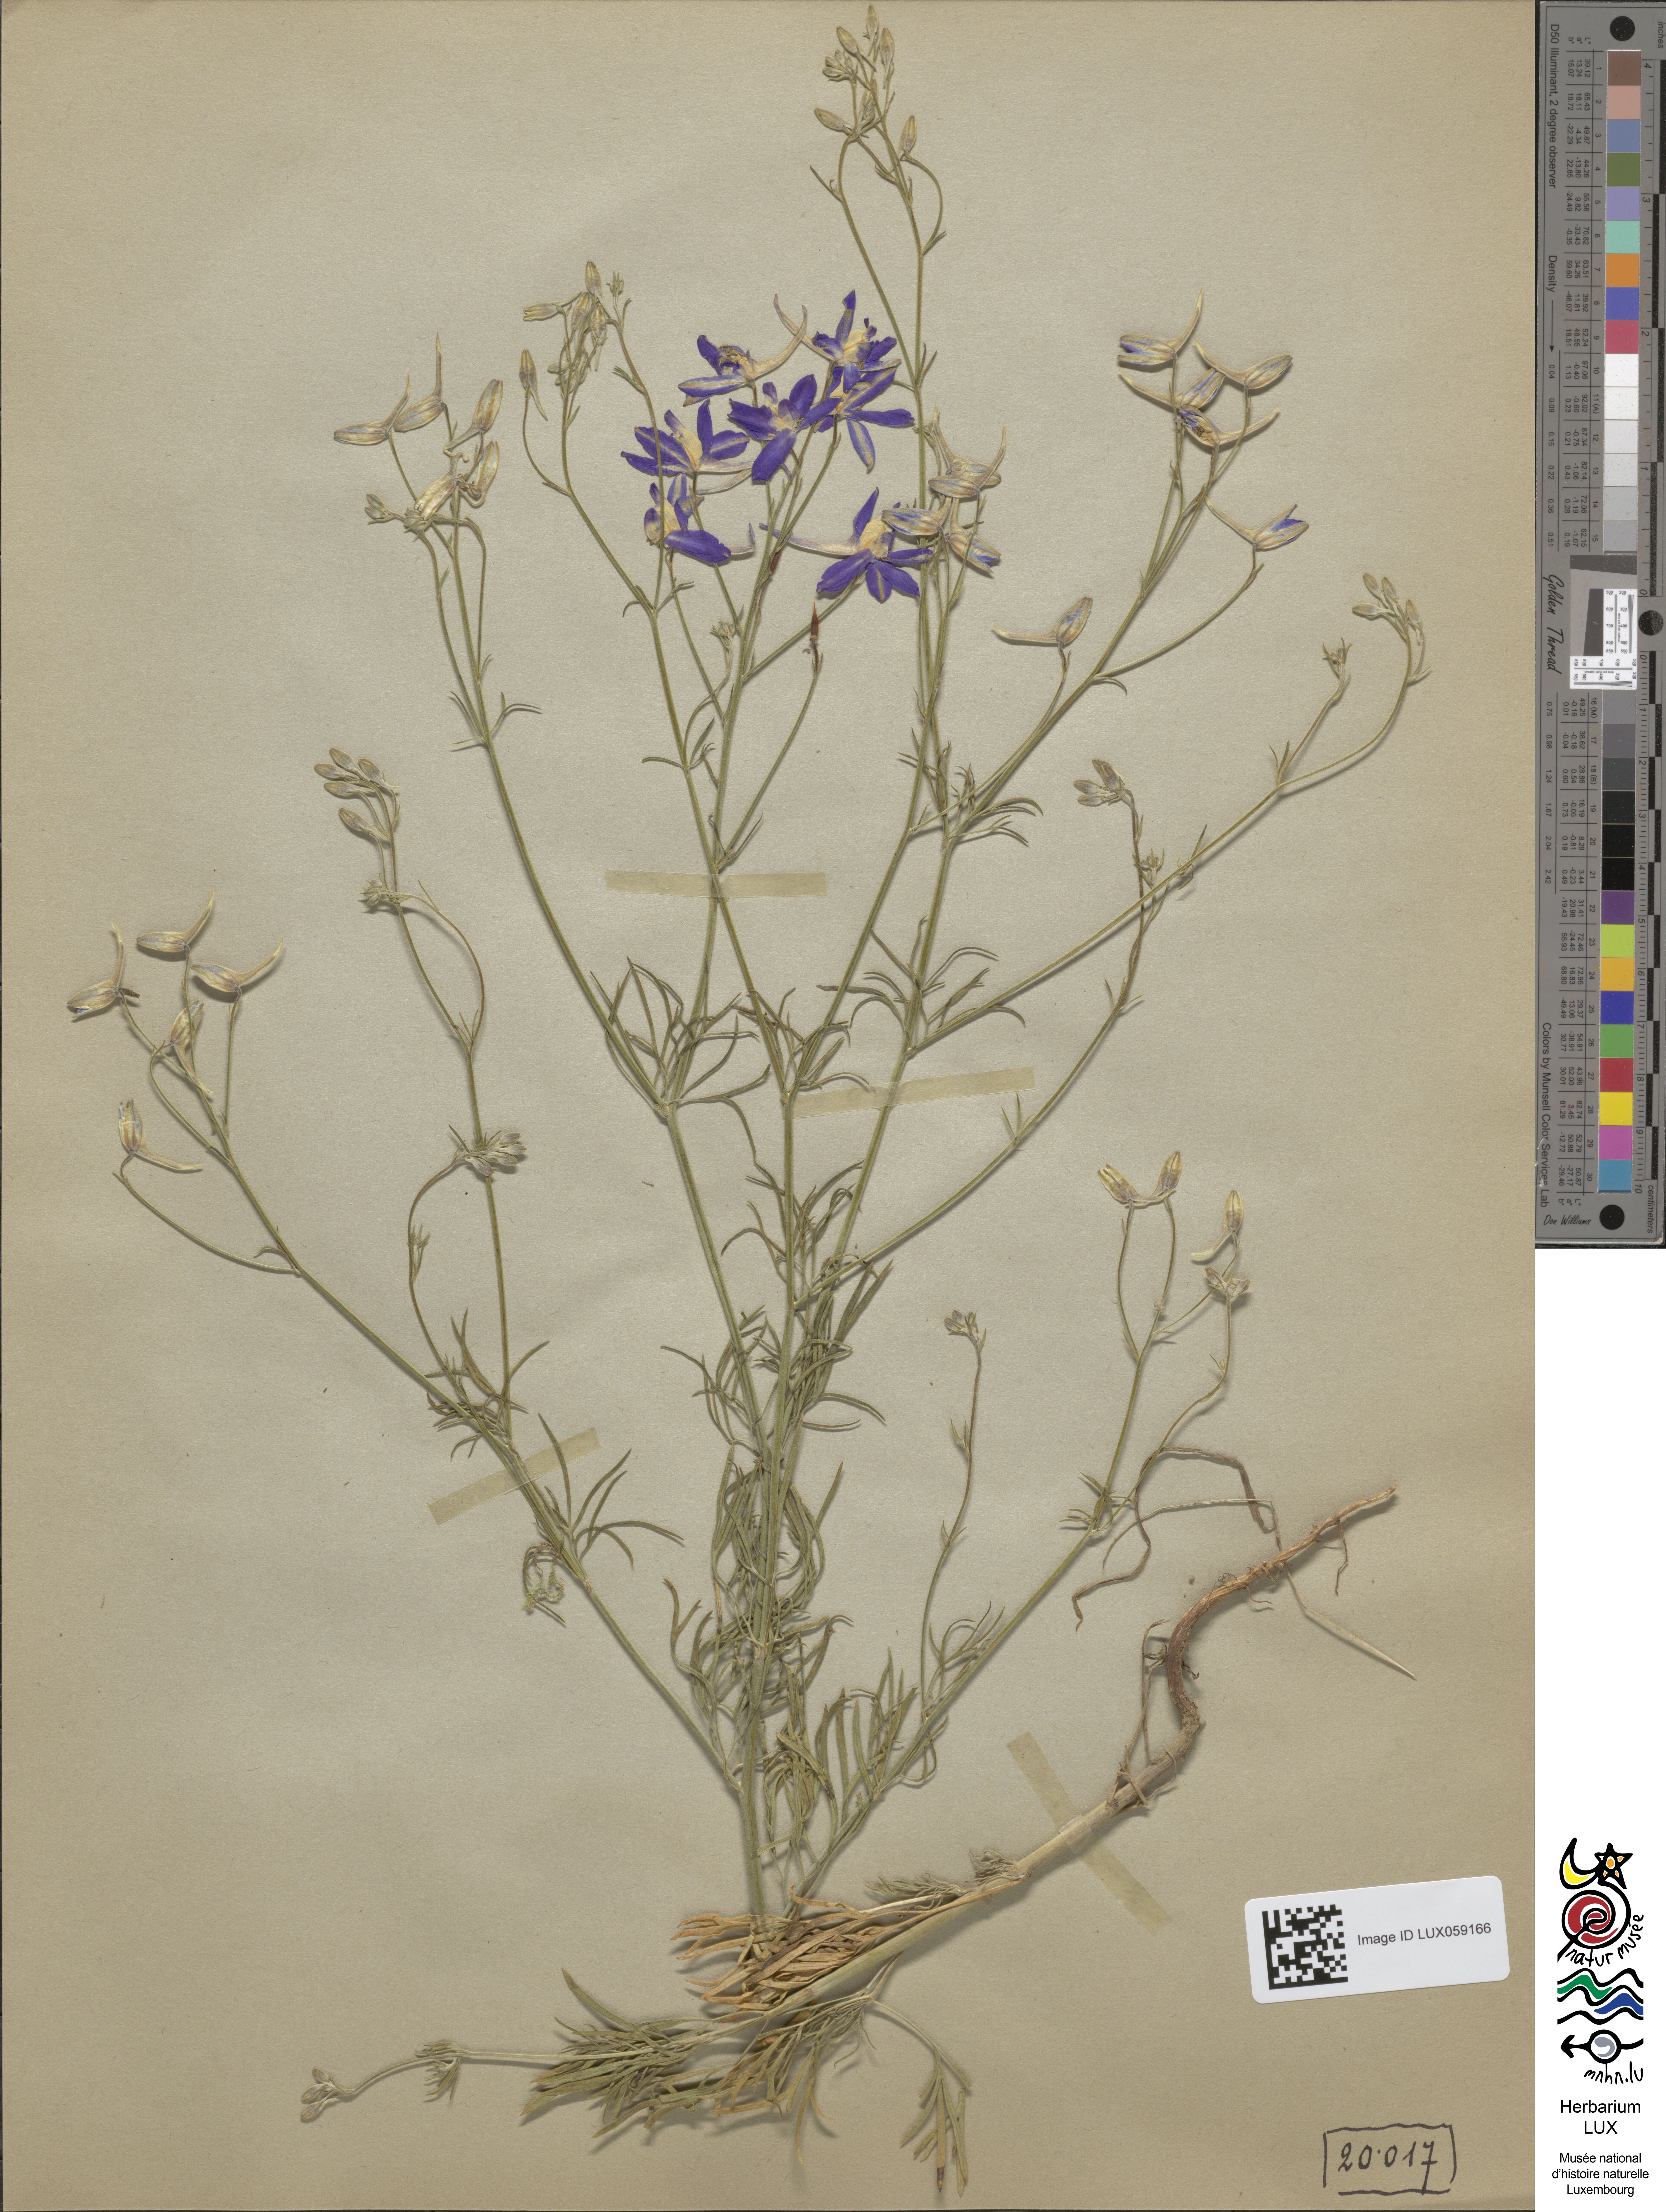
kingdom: Plantae
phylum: Tracheophyta
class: Magnoliopsida
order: Ranunculales
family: Ranunculaceae
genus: Delphinium
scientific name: Delphinium consolida
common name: Branching larkspur
